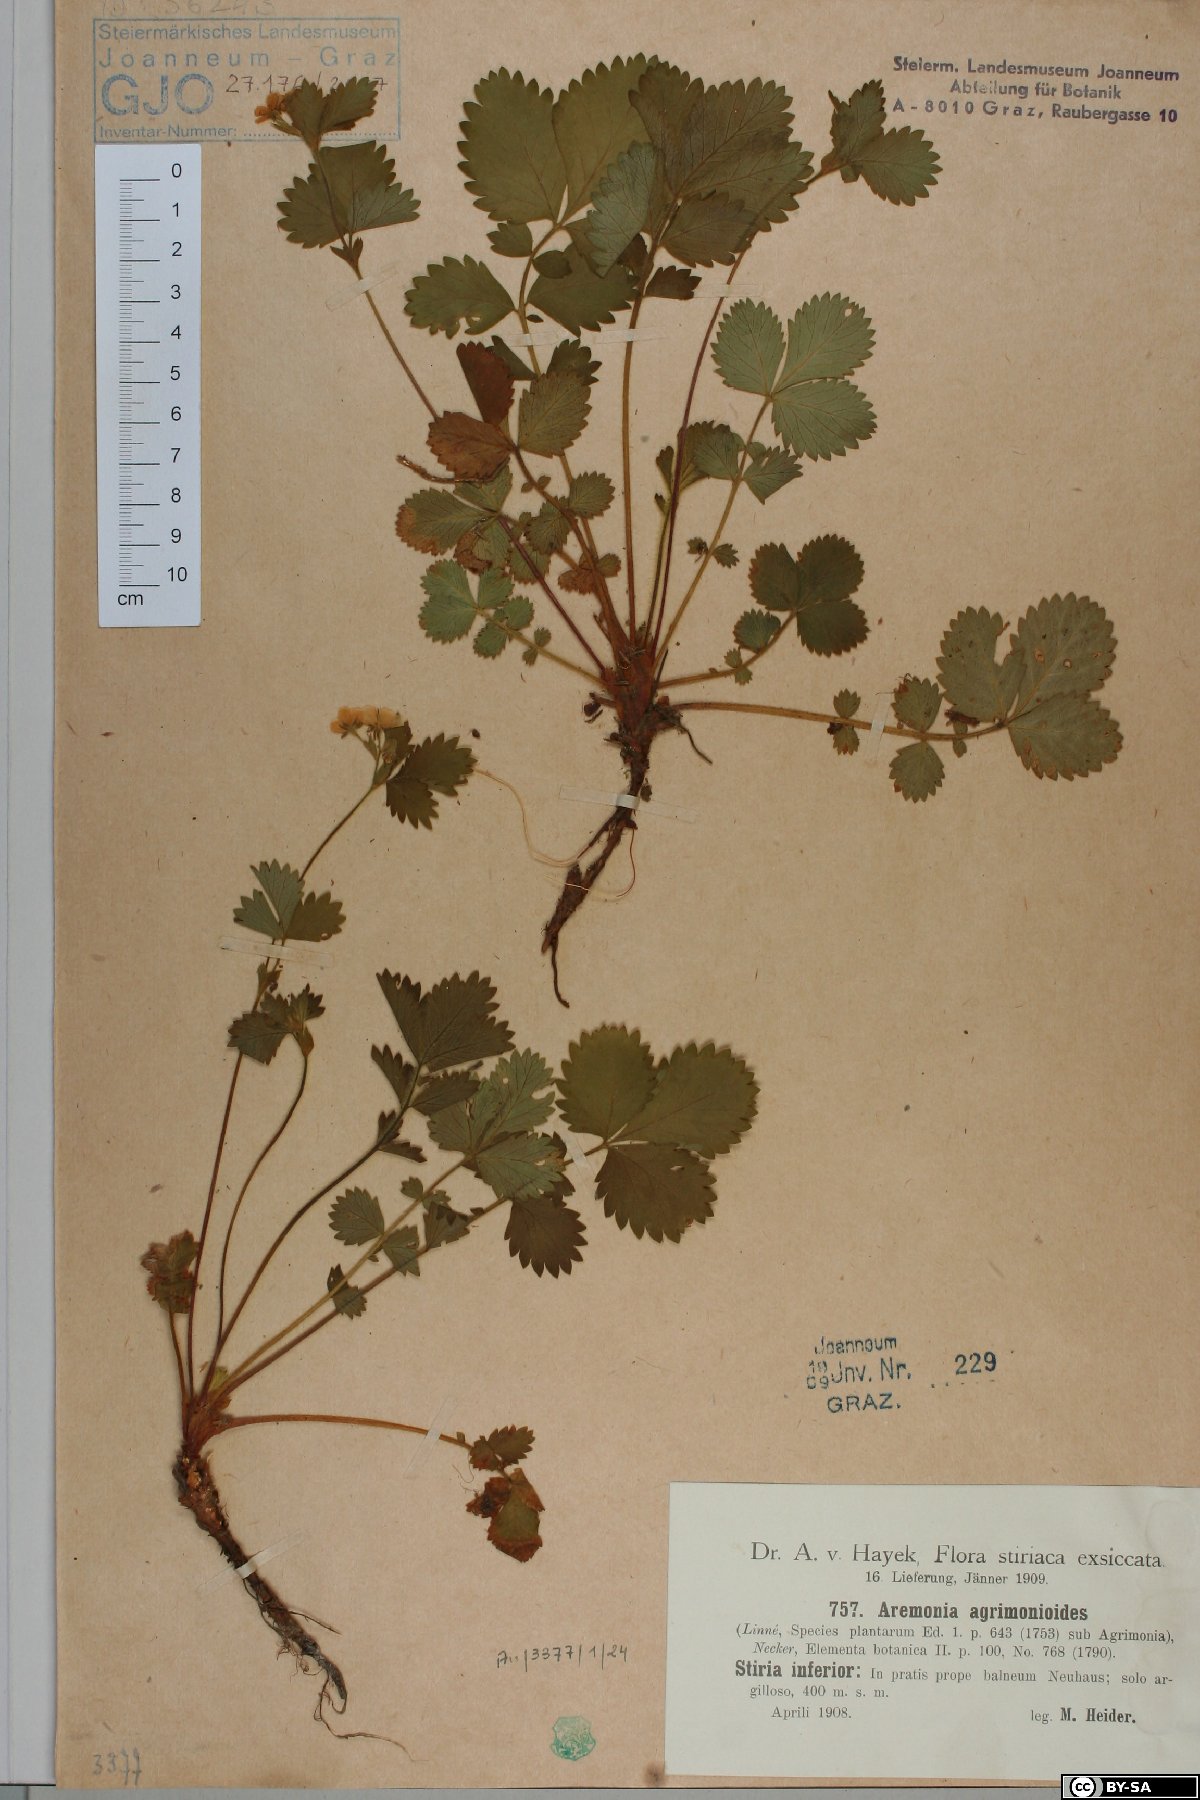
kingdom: Plantae
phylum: Tracheophyta
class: Magnoliopsida
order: Rosales
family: Rosaceae
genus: Aremonia
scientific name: Aremonia agrimonoides
